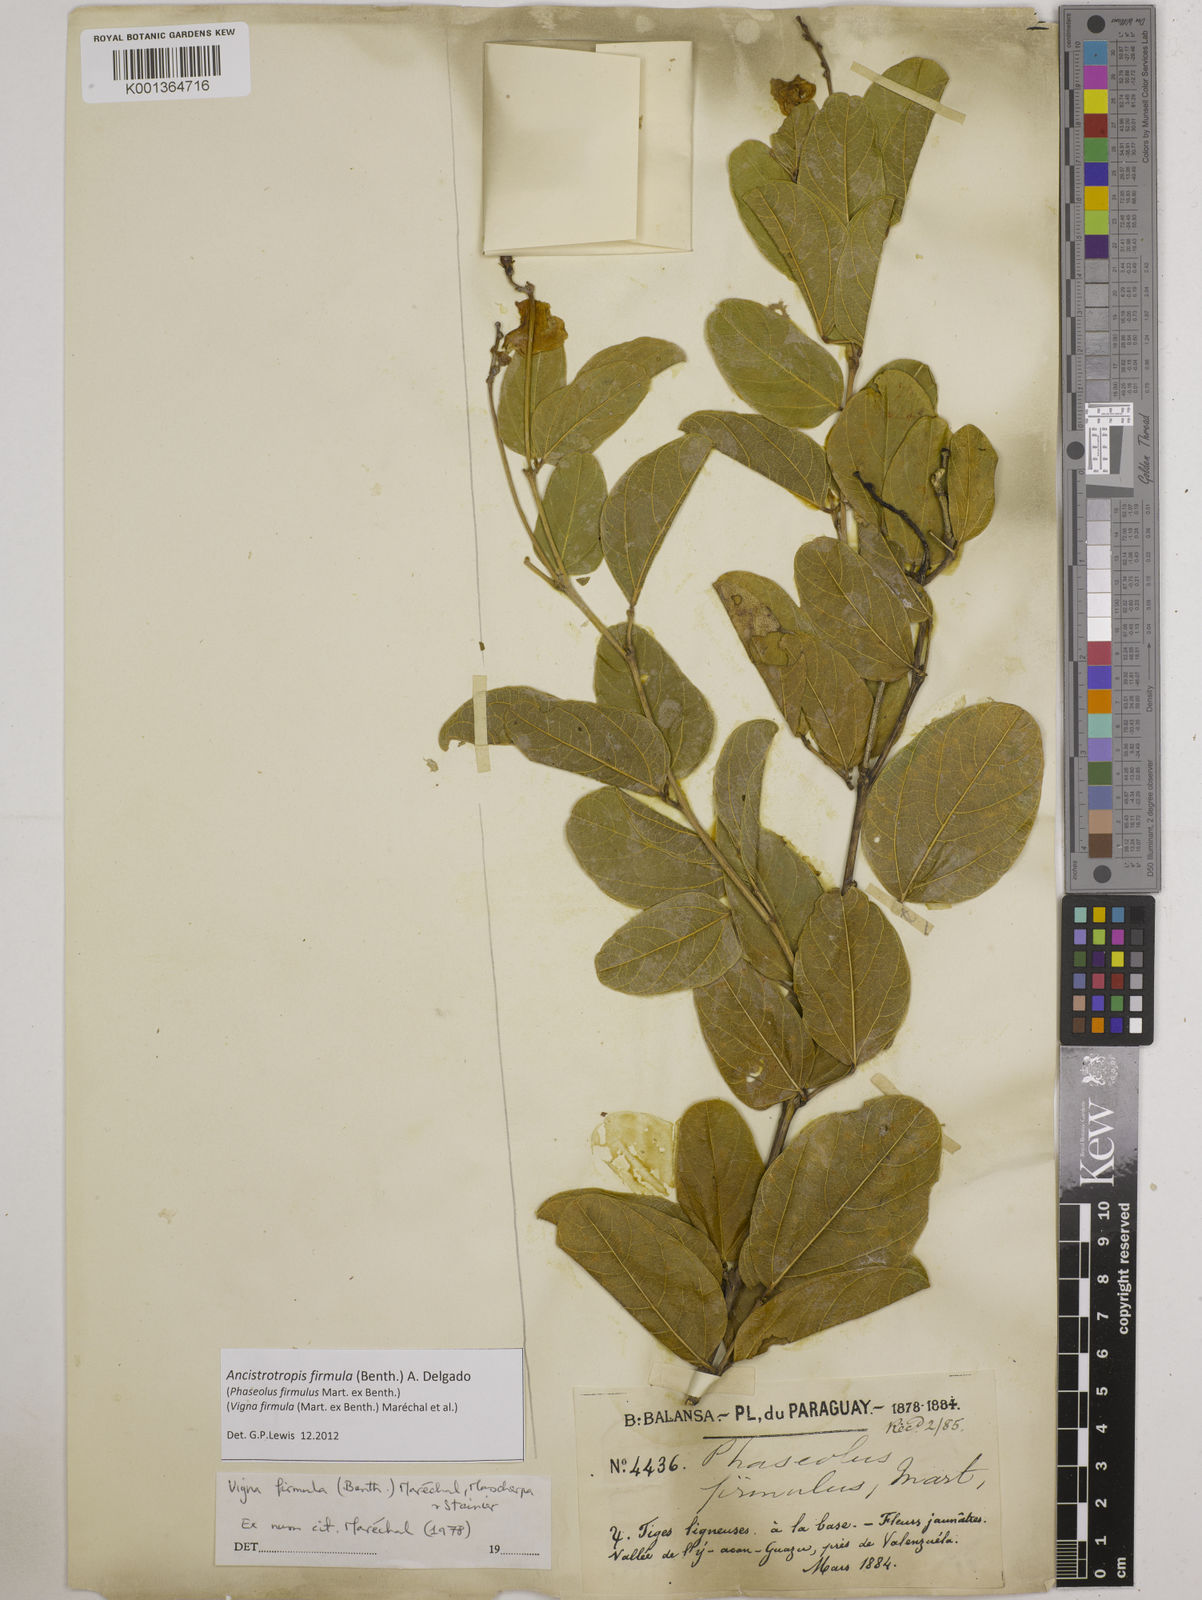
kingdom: Plantae
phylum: Tracheophyta
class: Magnoliopsida
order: Fabales
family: Fabaceae
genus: Ancistrotropis
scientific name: Ancistrotropis firmula
